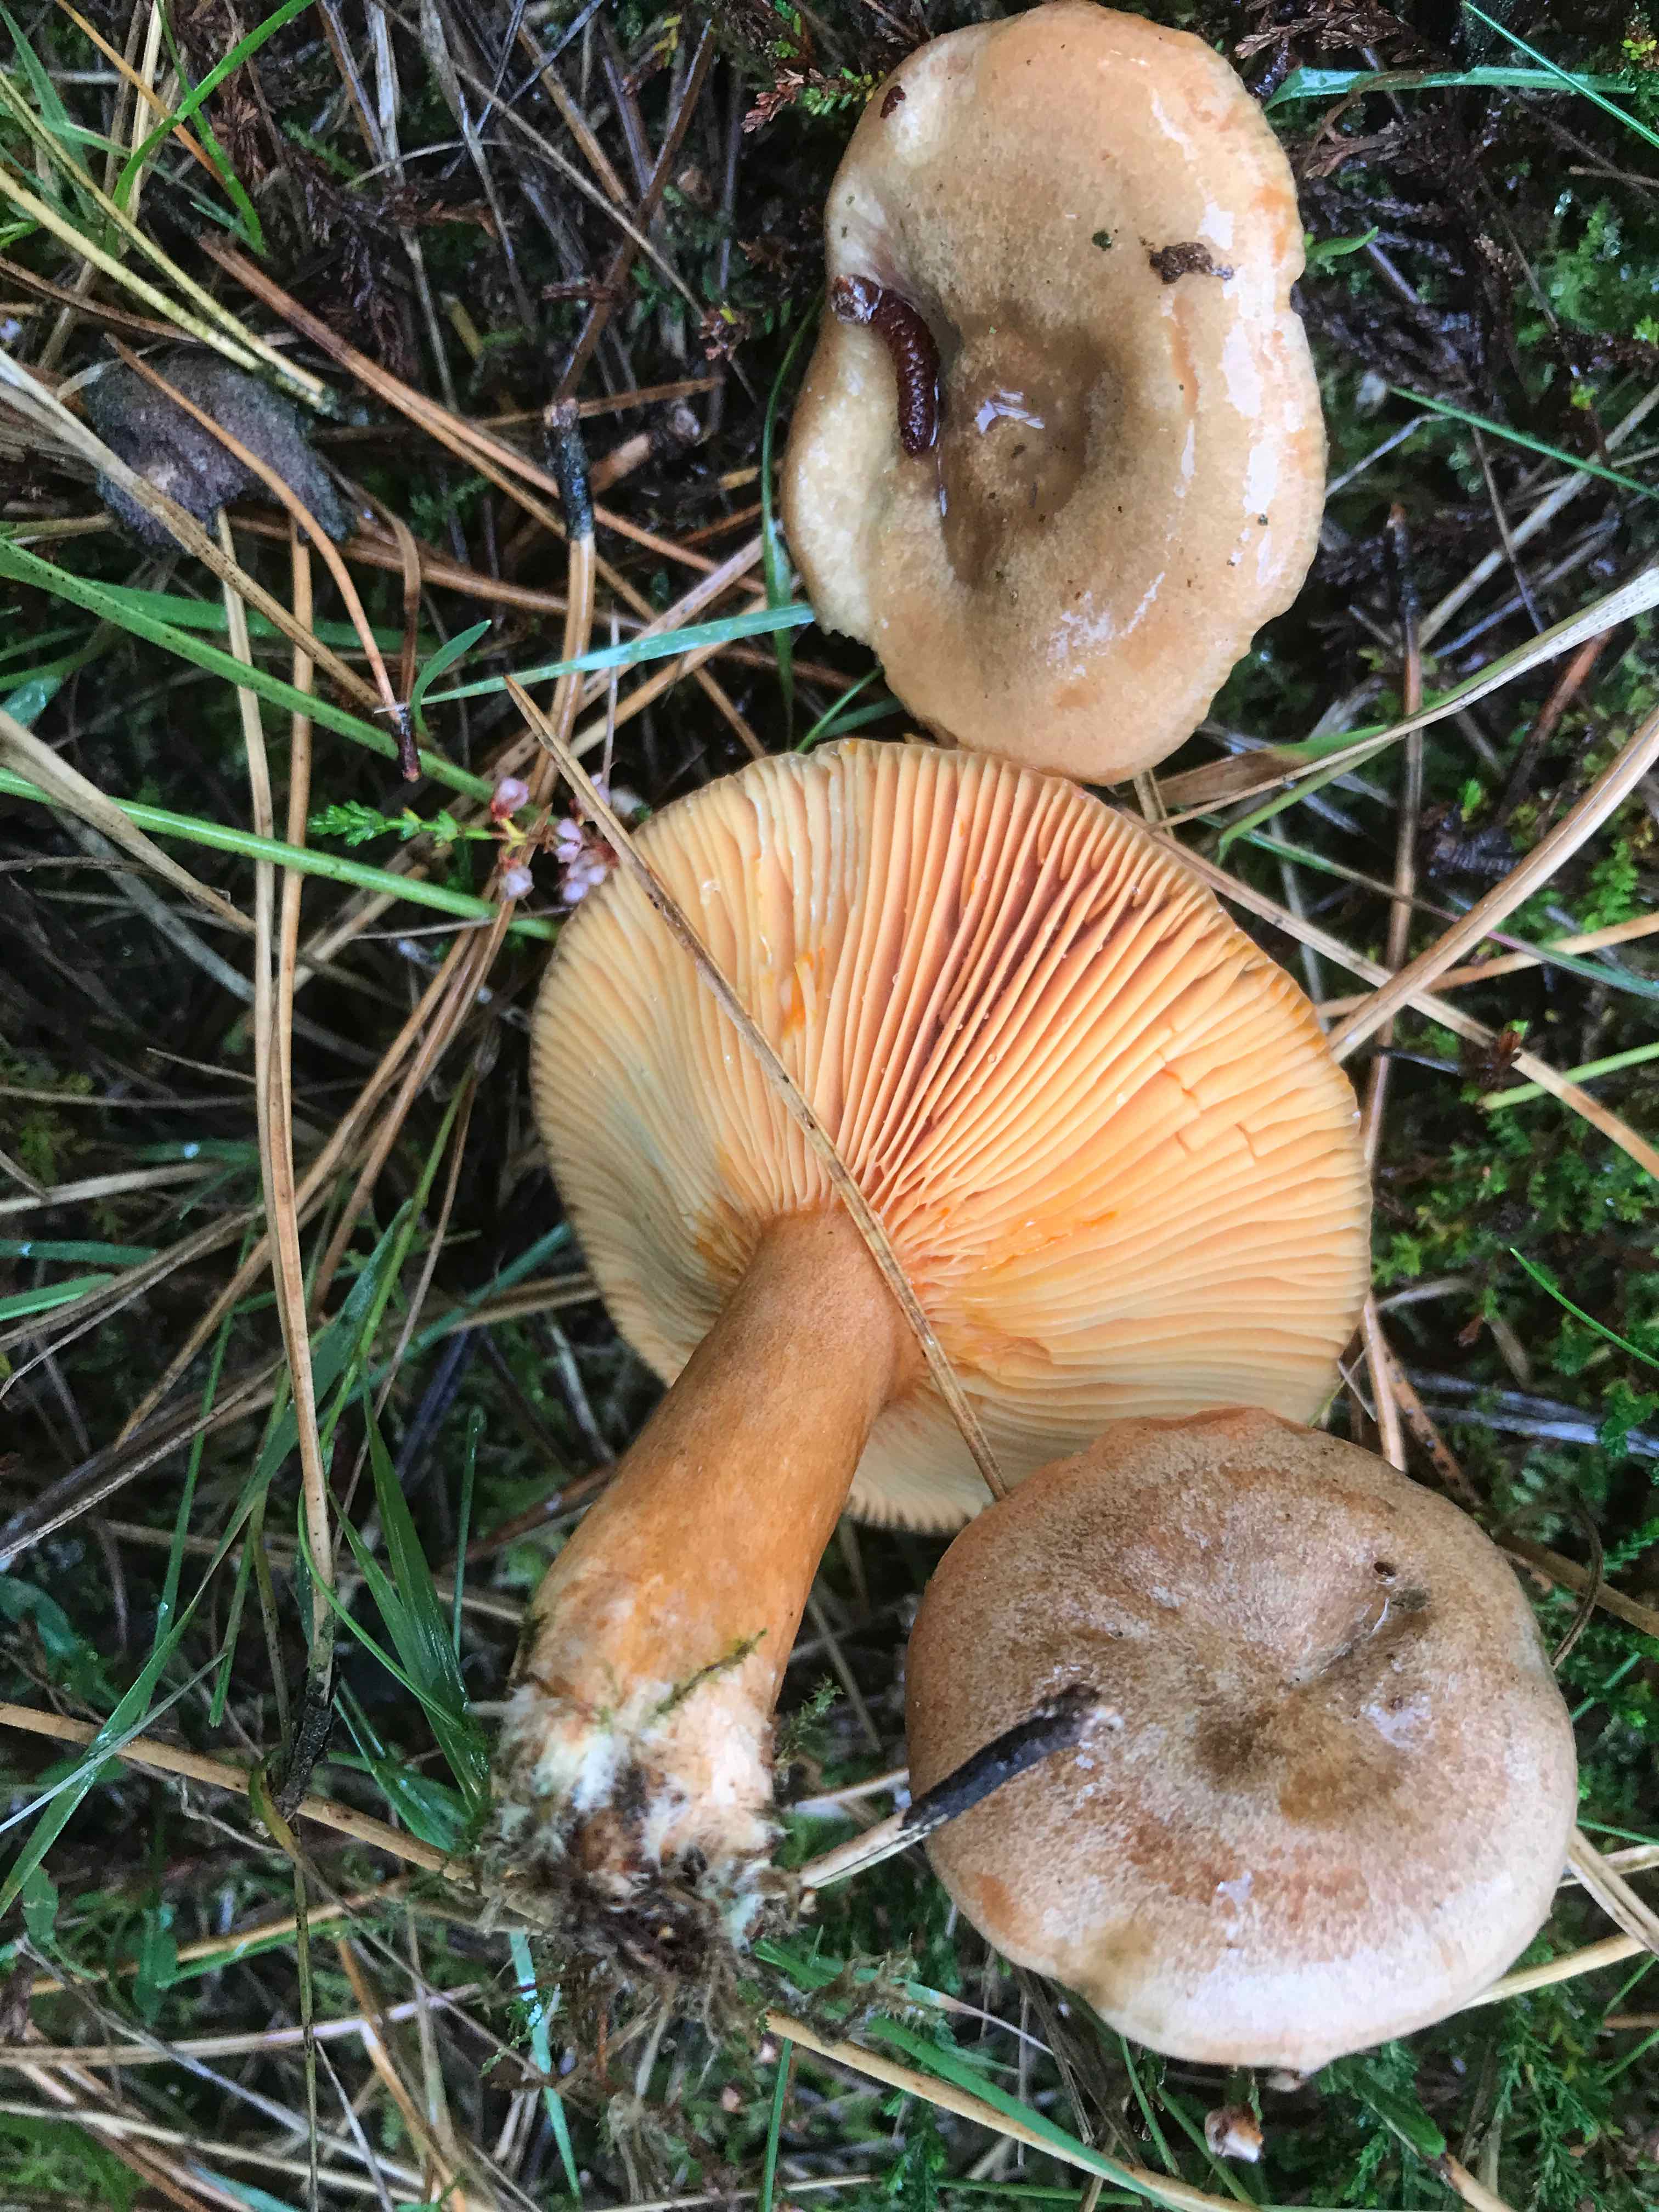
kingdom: Fungi
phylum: Basidiomycota
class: Agaricomycetes
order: Russulales
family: Russulaceae
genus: Lactarius
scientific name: Lactarius deterrimus
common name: gran-mælkehat
